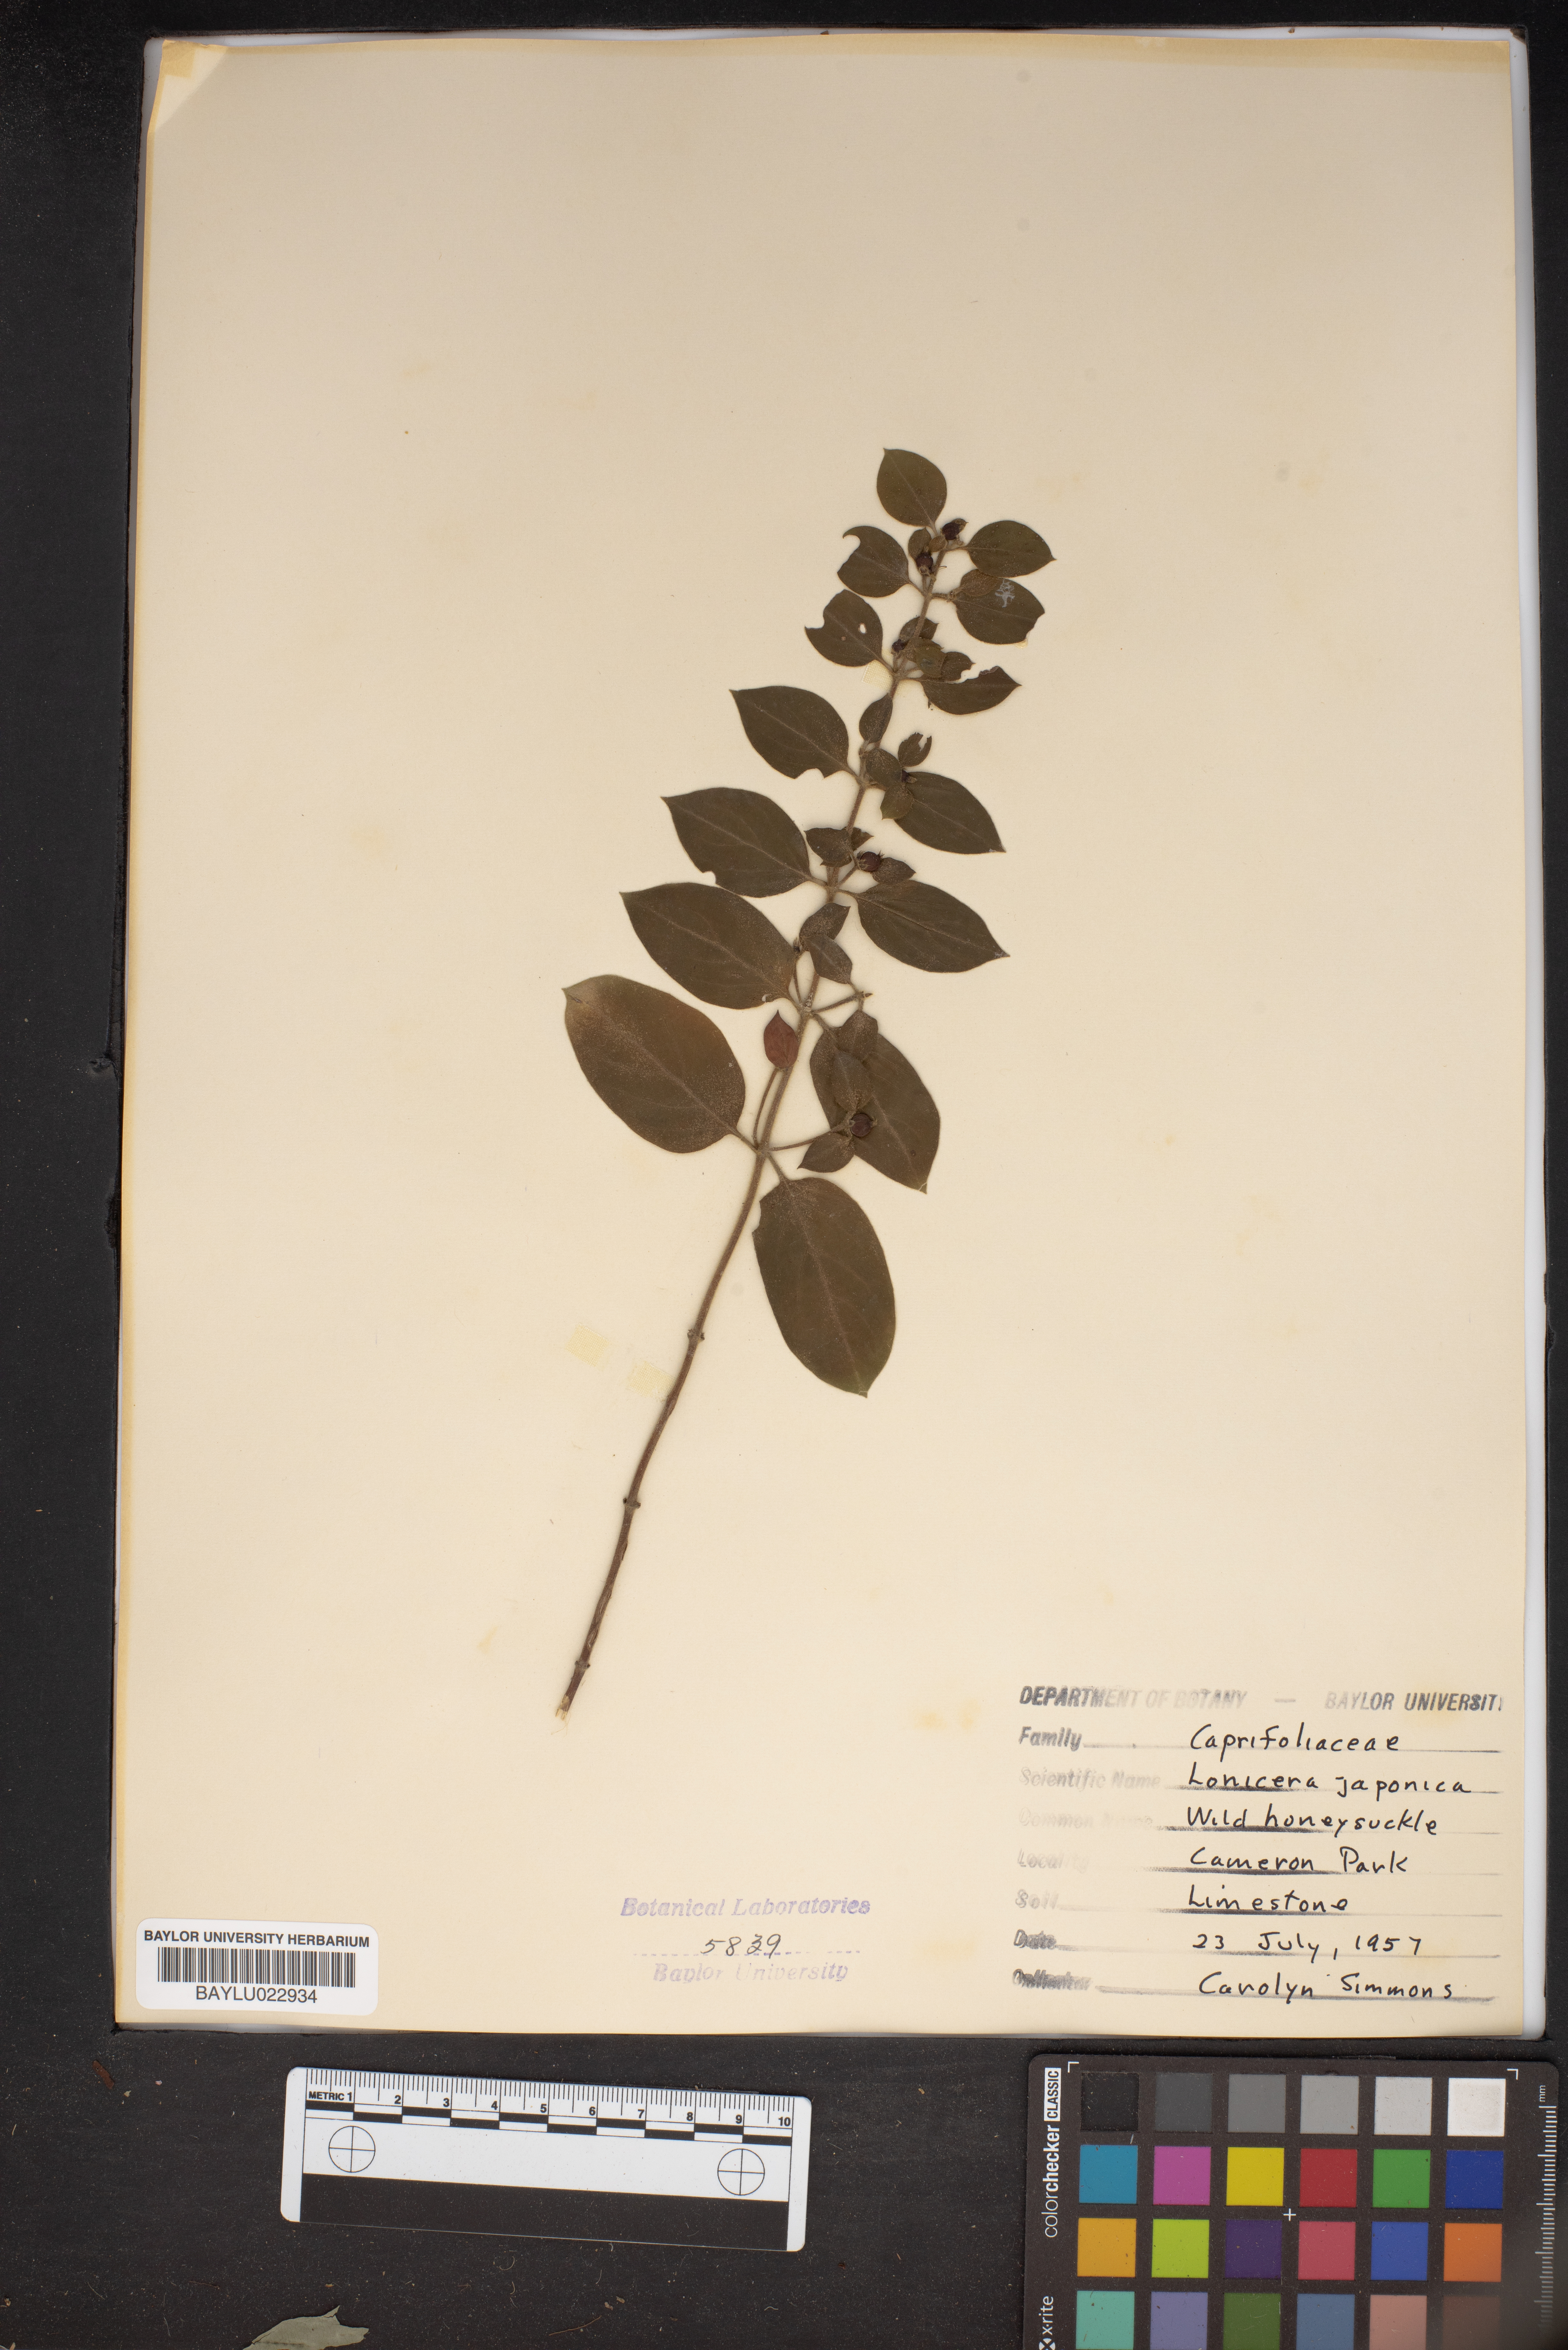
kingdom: Plantae
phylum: Tracheophyta
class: Magnoliopsida
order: Dipsacales
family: Caprifoliaceae
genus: Lonicera
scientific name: Lonicera japonica
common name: Japanese honeysuckle
